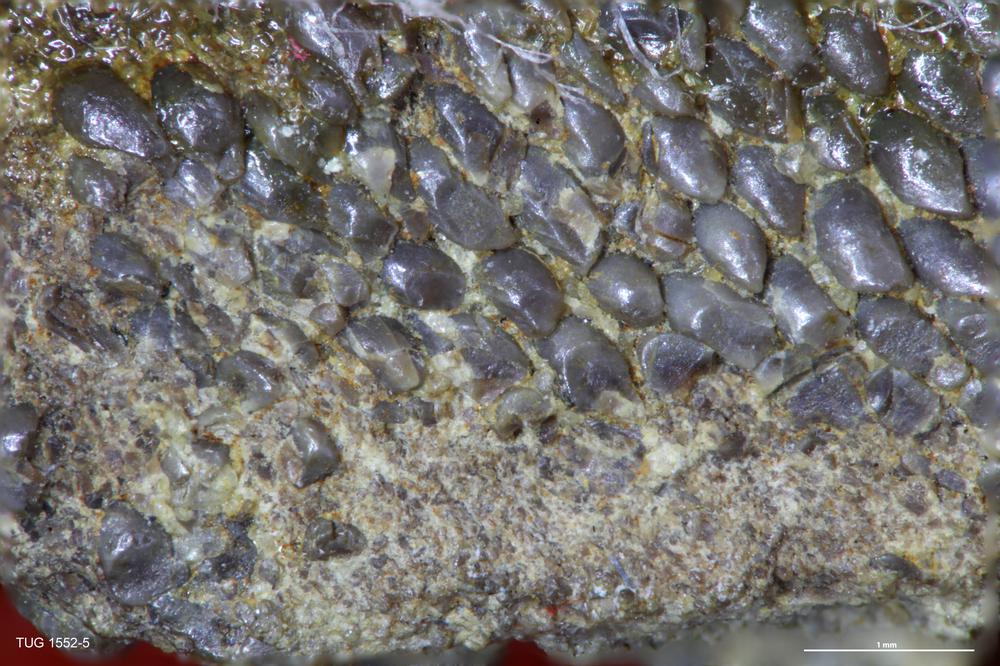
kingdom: Animalia
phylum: Chordata
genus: Guerichosteus
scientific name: Guerichosteus
